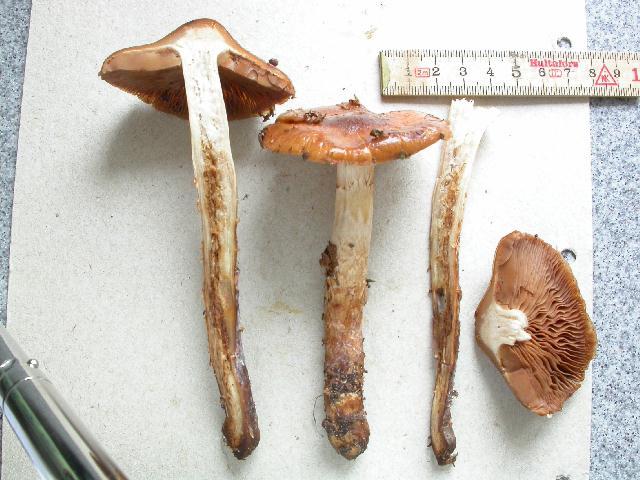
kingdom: Fungi
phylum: Basidiomycota
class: Agaricomycetes
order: Agaricales
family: Cortinariaceae
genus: Cortinarius
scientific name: Cortinarius collinitoides
